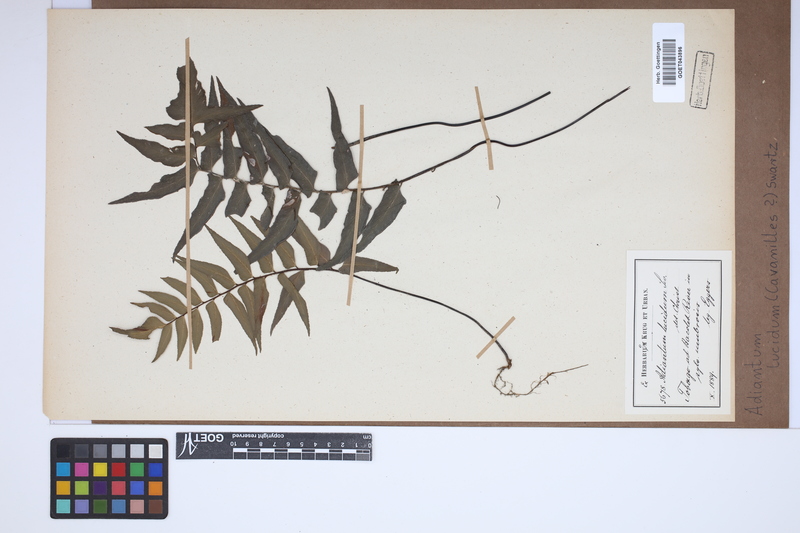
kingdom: Plantae
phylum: Tracheophyta
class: Polypodiopsida
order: Polypodiales
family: Pteridaceae
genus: Adiantum
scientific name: Adiantum lucidum
